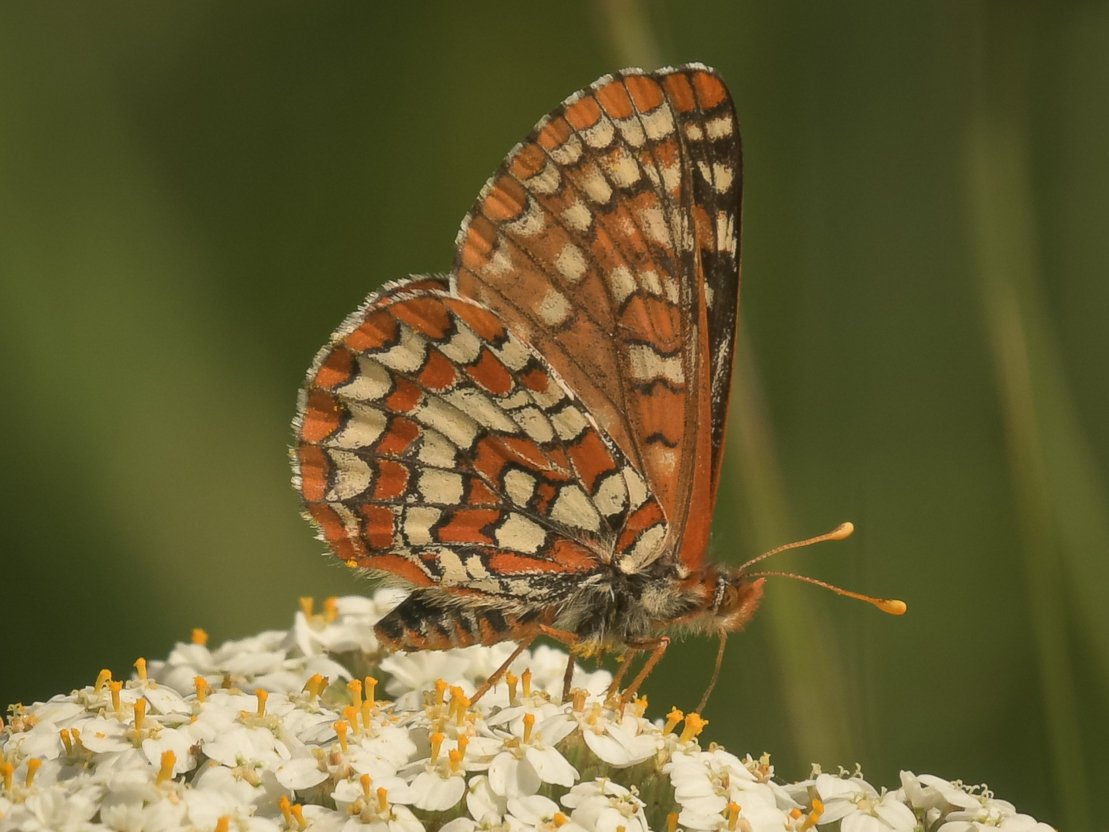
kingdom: Animalia
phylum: Arthropoda
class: Insecta
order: Lepidoptera
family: Nymphalidae
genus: Euphydryas
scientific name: Euphydryas
